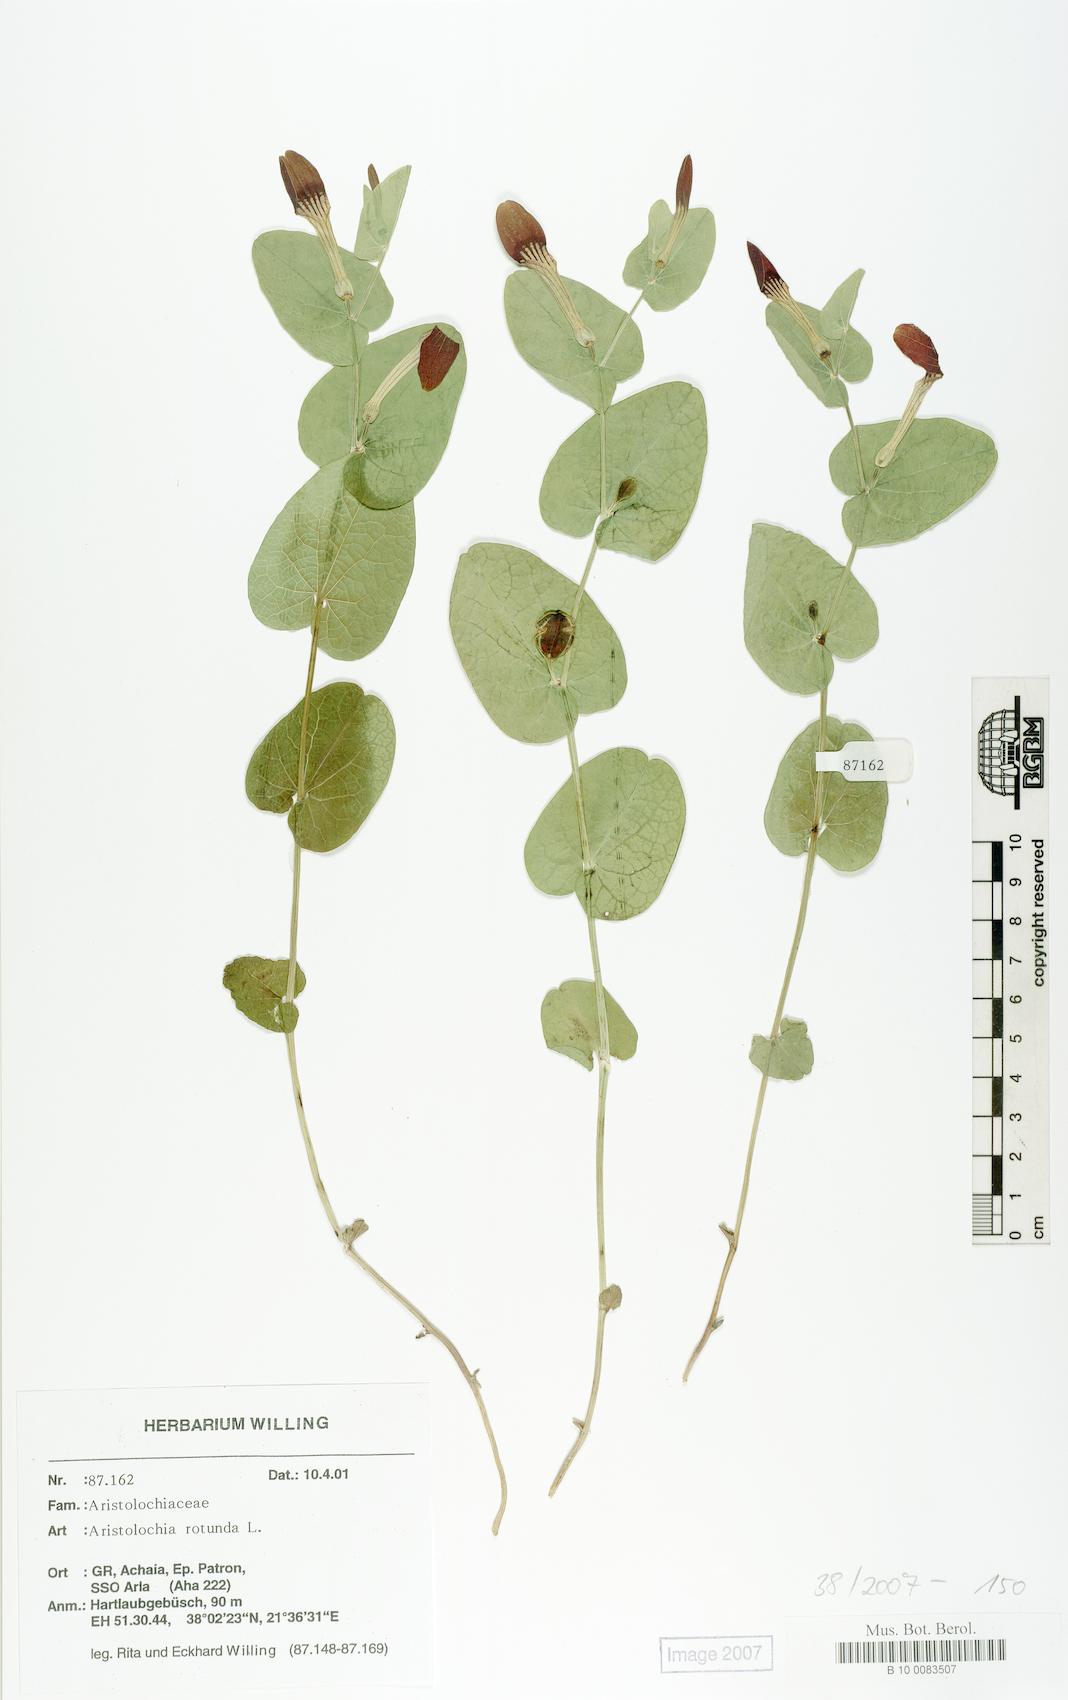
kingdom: Plantae
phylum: Tracheophyta
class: Magnoliopsida
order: Piperales
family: Aristolochiaceae
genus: Aristolochia
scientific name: Aristolochia rotunda
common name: Smearwort
